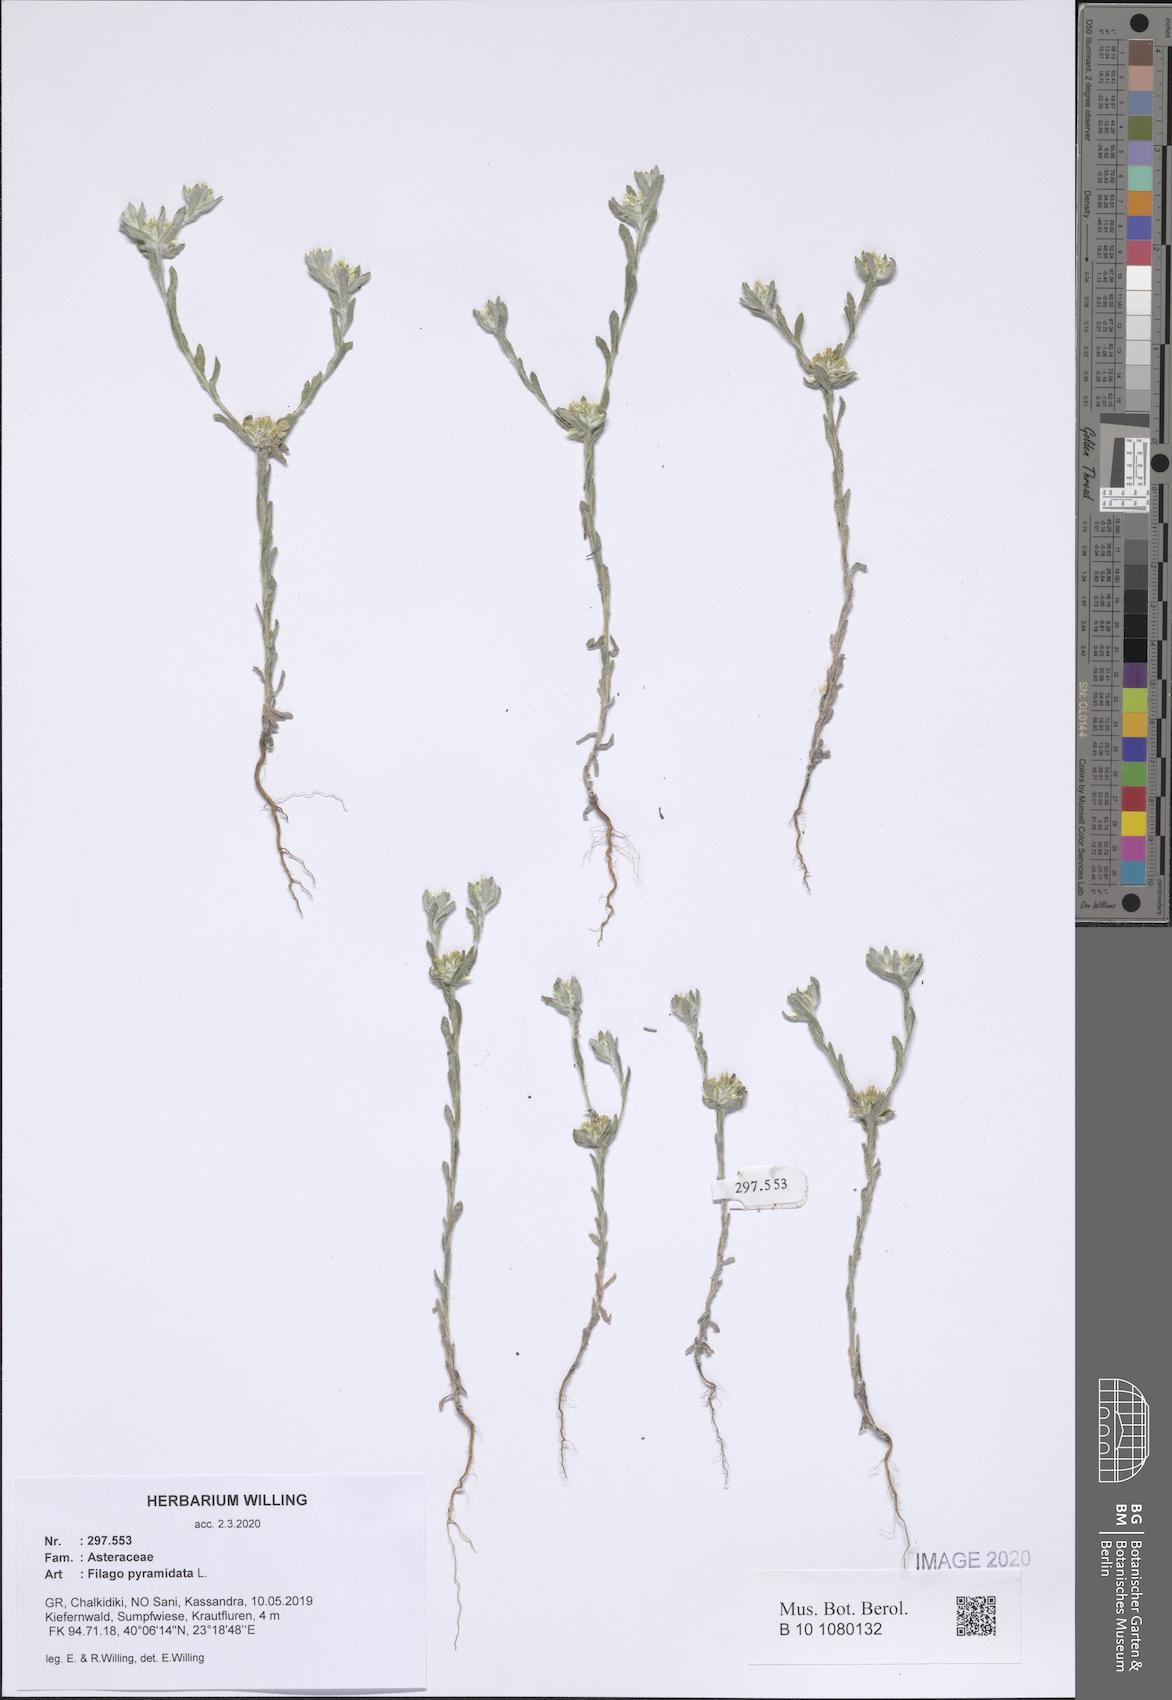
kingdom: Plantae
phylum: Tracheophyta
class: Magnoliopsida
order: Asterales
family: Asteraceae
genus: Filago
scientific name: Filago pyramidata
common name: Broad-leaved cudweed
